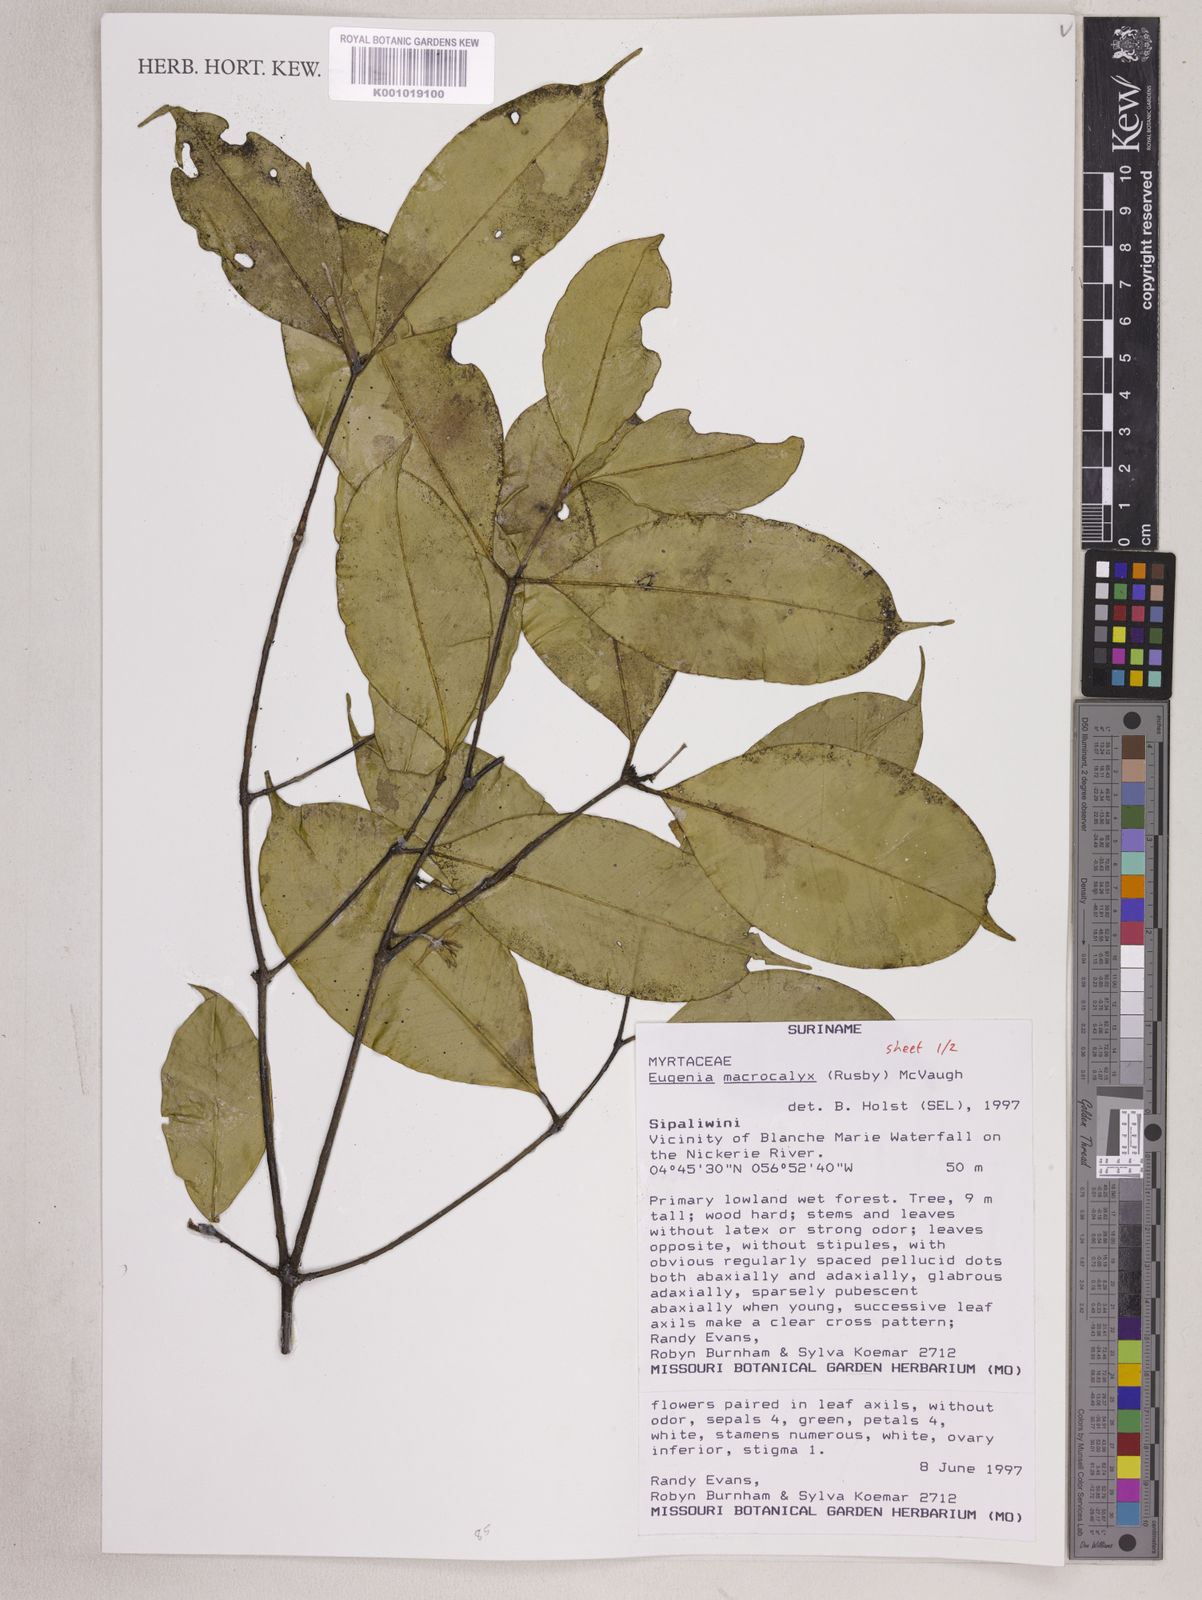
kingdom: Plantae
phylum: Tracheophyta
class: Magnoliopsida
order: Myrtales
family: Myrtaceae
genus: Eugenia
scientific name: Eugenia wentii
